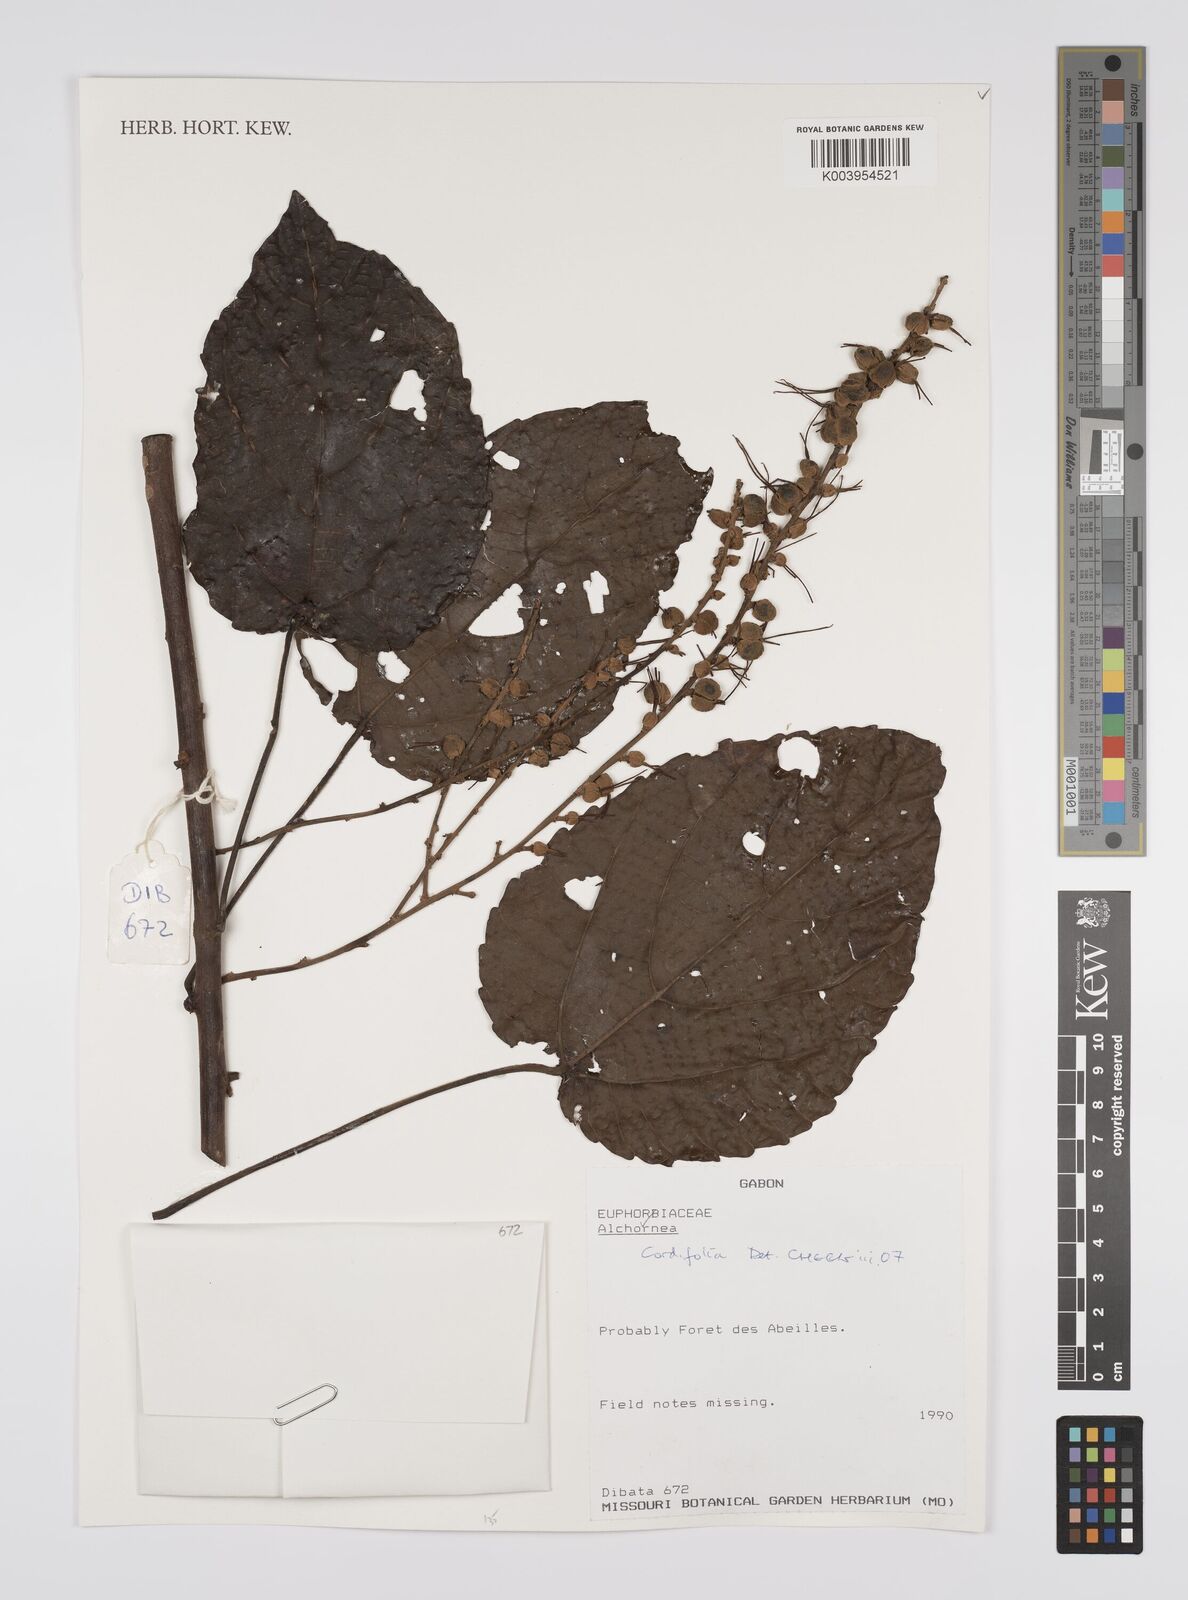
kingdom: Plantae
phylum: Tracheophyta
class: Magnoliopsida
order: Malpighiales
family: Euphorbiaceae
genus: Alchornea
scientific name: Alchornea cordifolia
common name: Christmasbush
